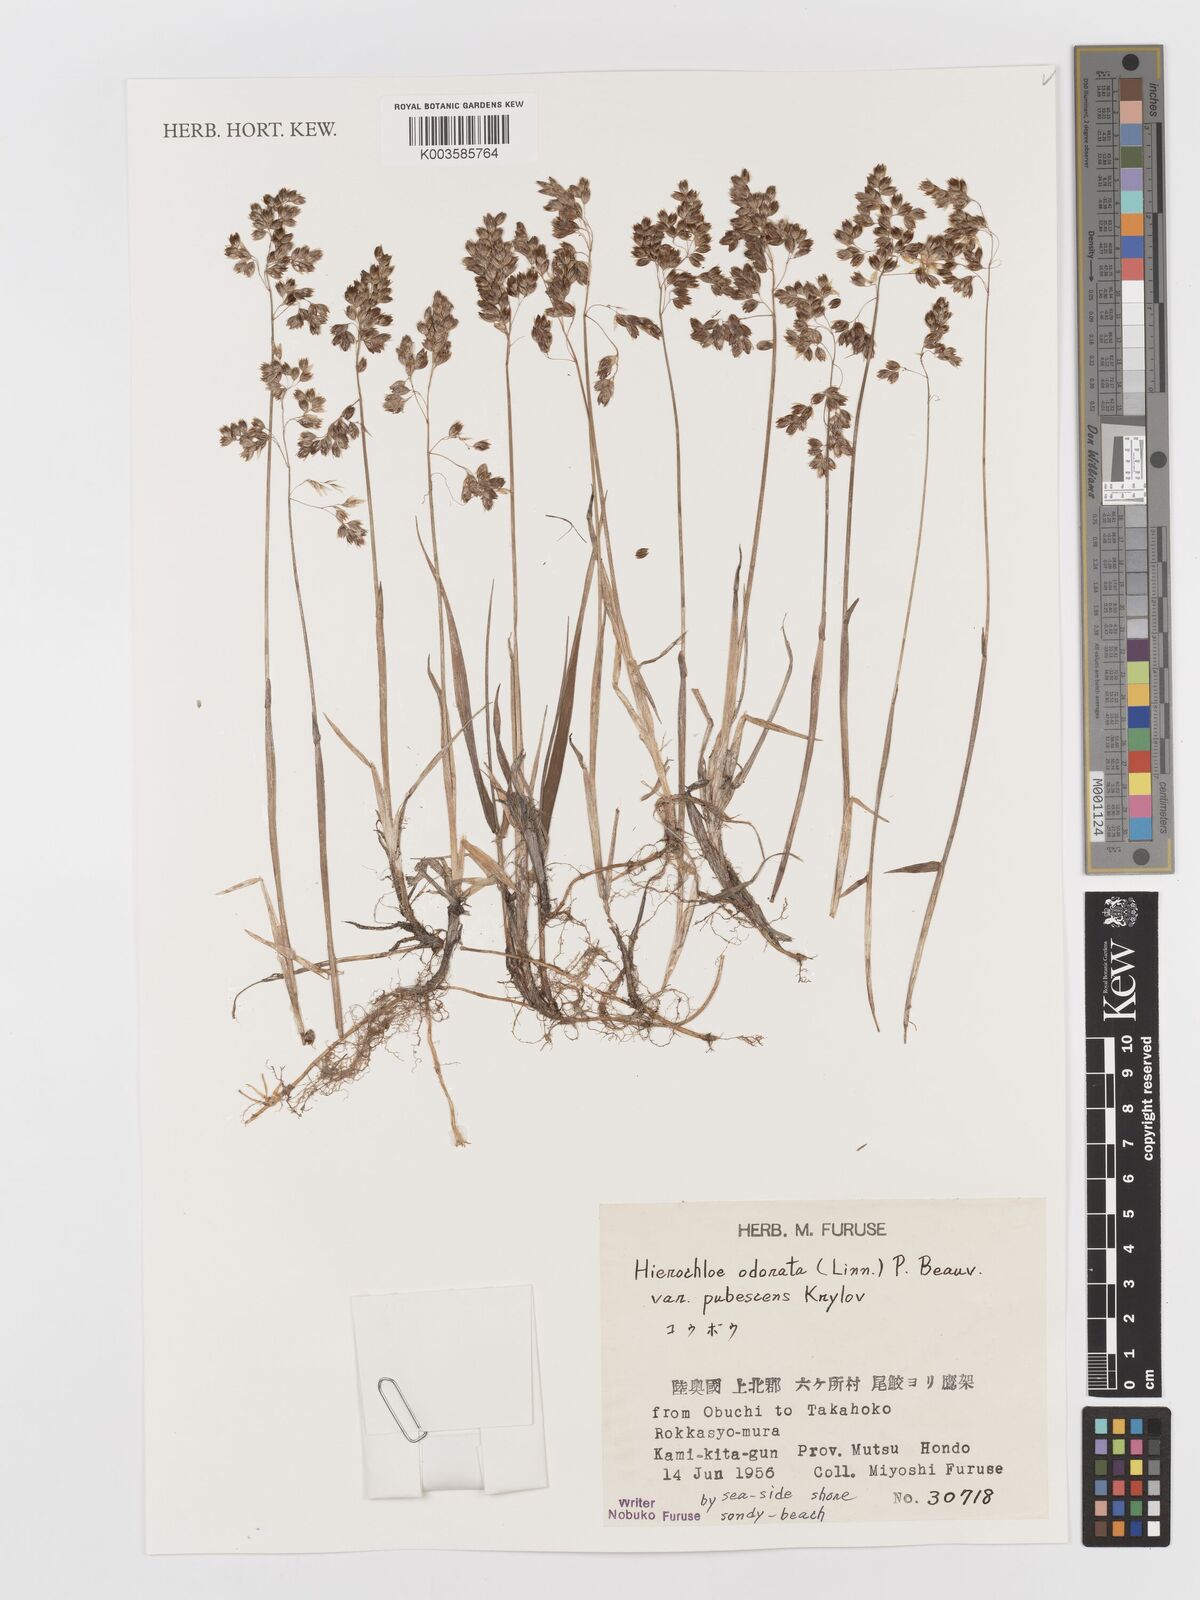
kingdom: Plantae
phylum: Tracheophyta
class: Liliopsida
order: Poales
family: Poaceae
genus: Anthoxanthum
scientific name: Anthoxanthum nitens
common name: Holy grass
